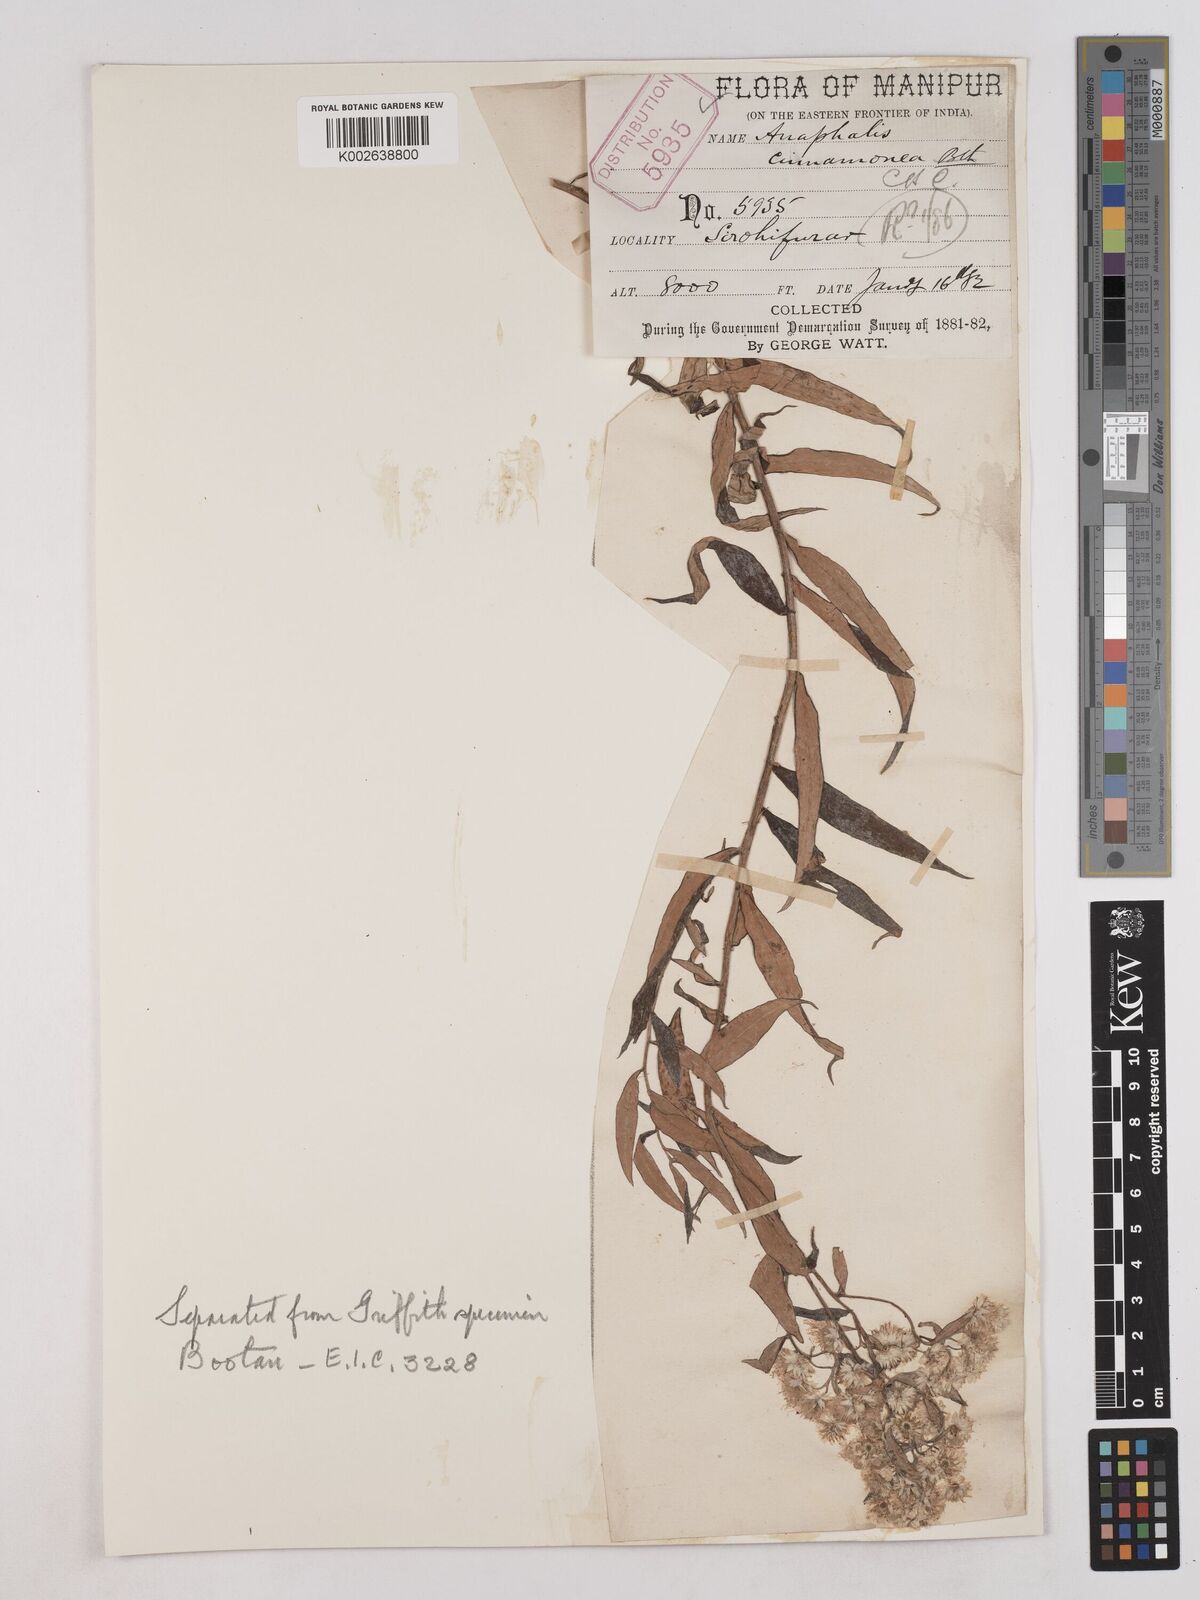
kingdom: Plantae
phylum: Tracheophyta
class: Magnoliopsida
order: Asterales
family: Asteraceae
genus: Anaphalis
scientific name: Anaphalis marcescens
